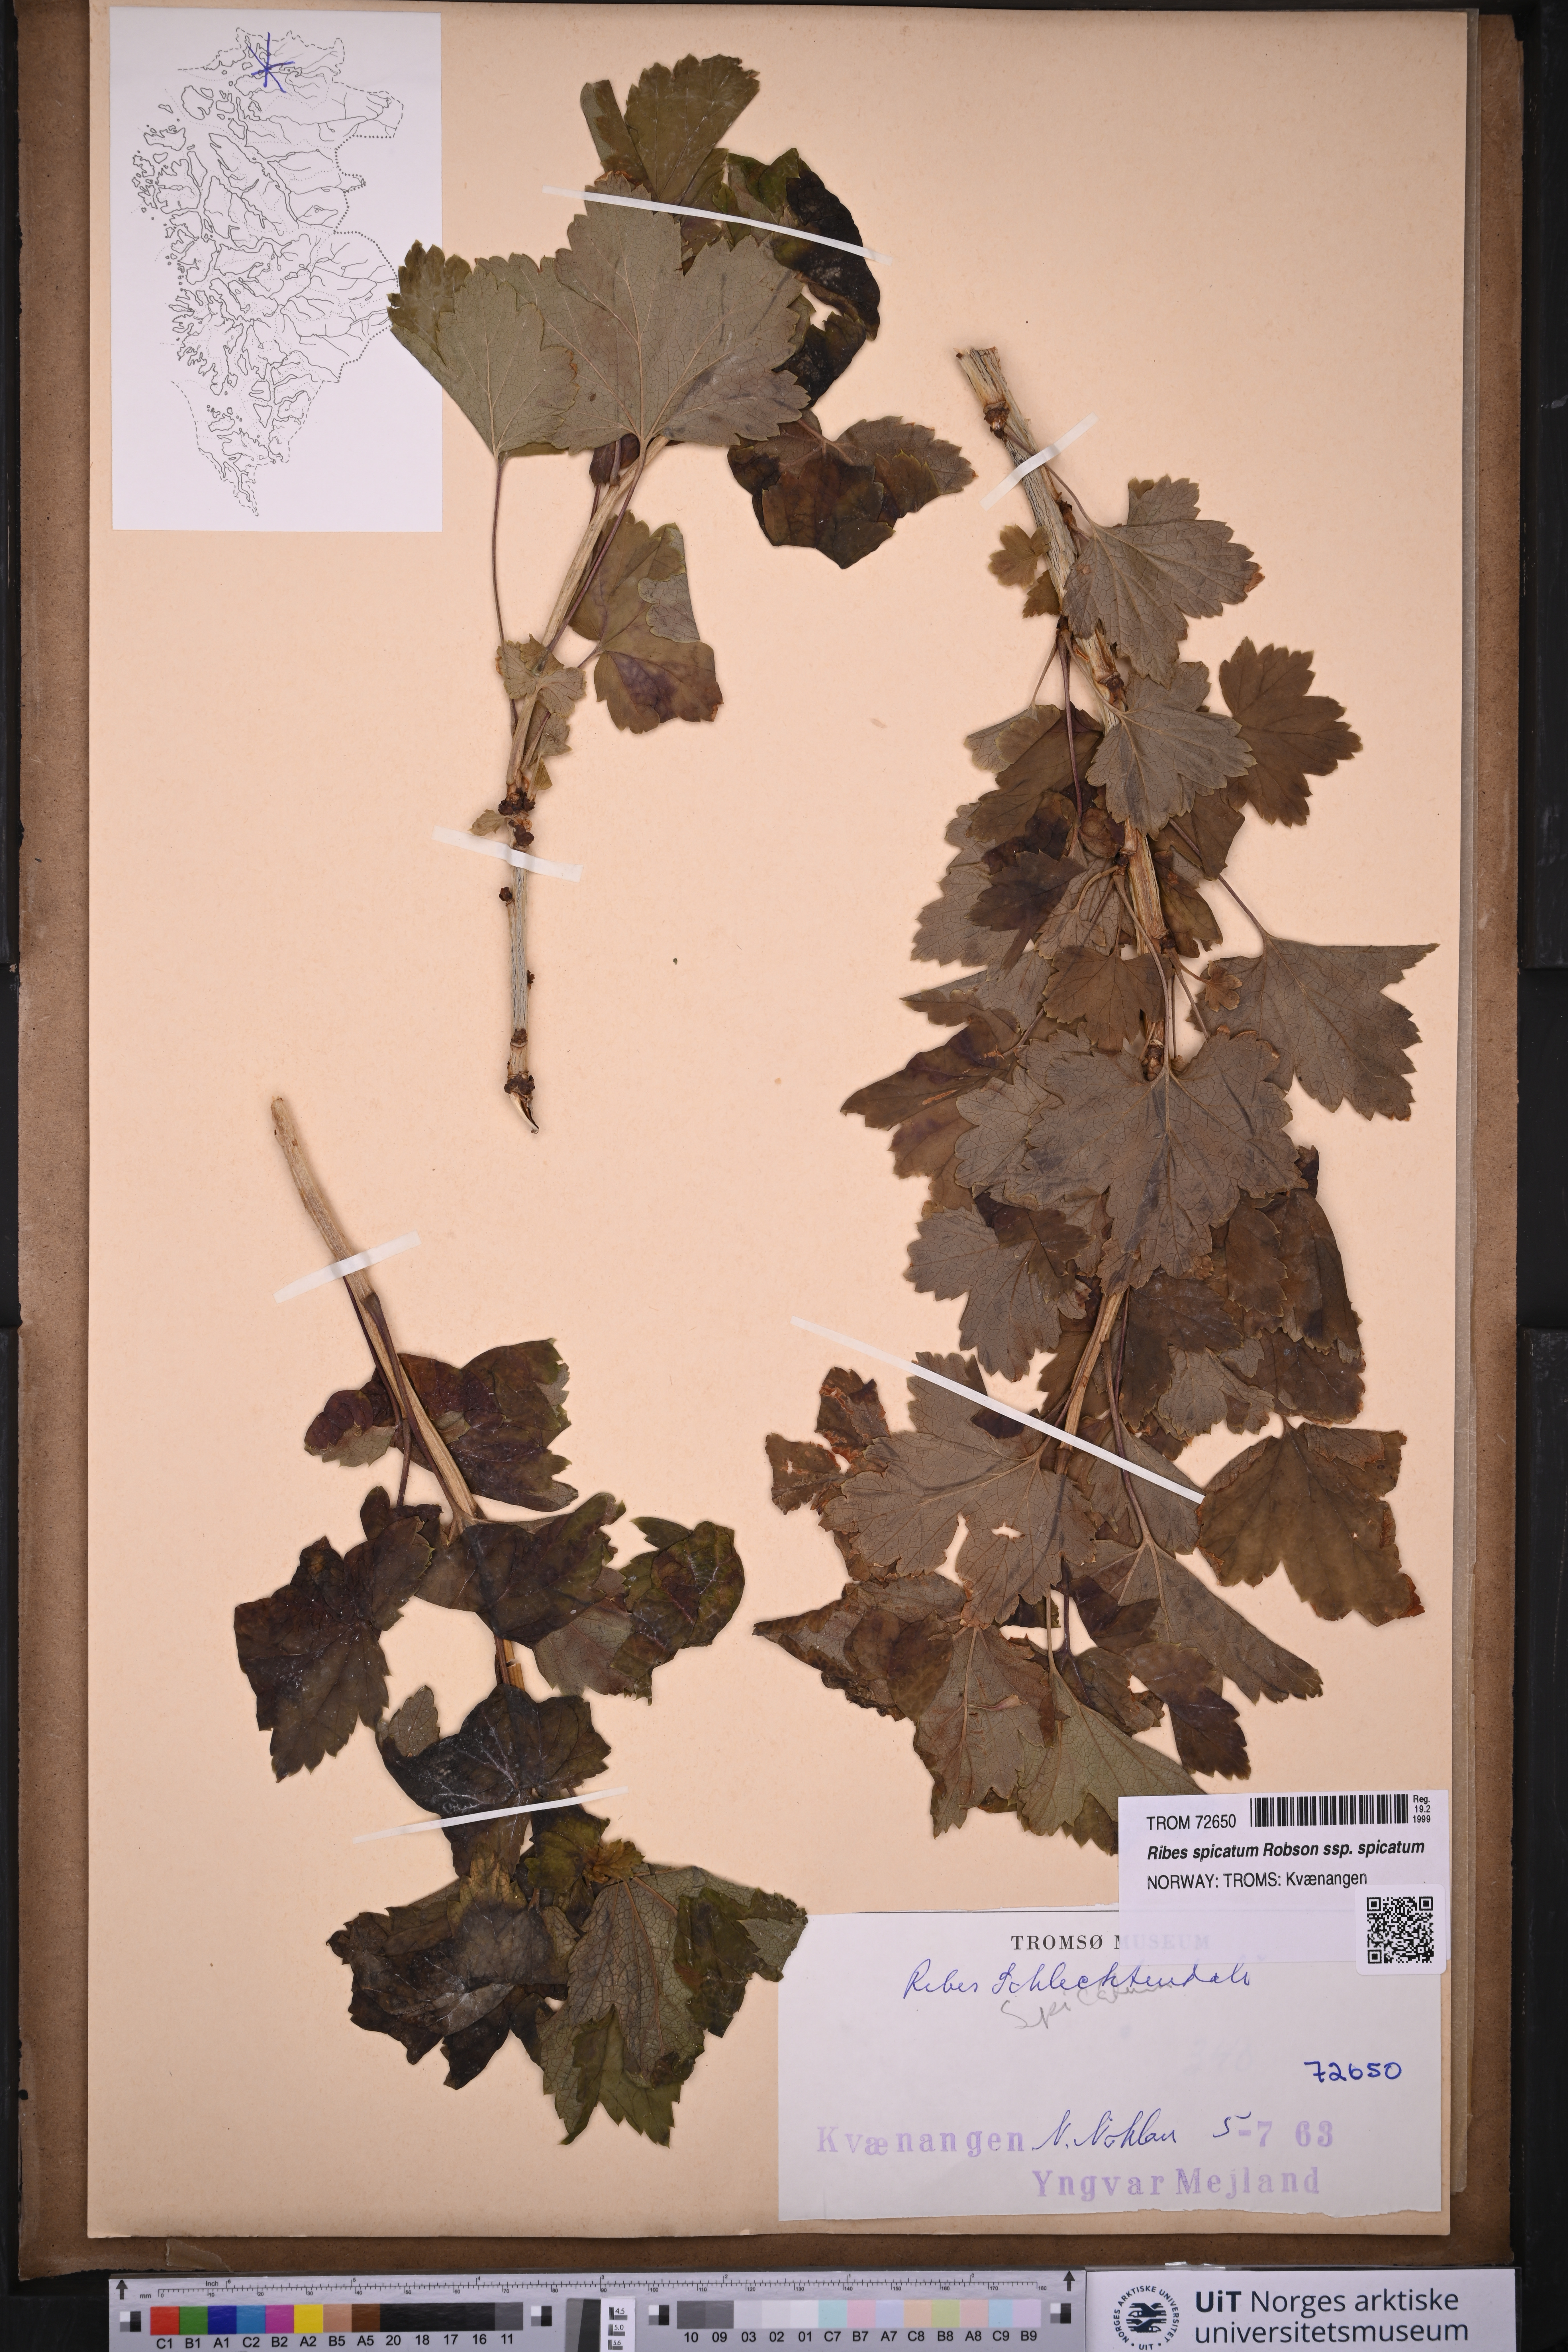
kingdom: Plantae
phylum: Tracheophyta
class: Magnoliopsida
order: Saxifragales
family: Grossulariaceae
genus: Ribes
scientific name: Ribes spicatum
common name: Downy currant
